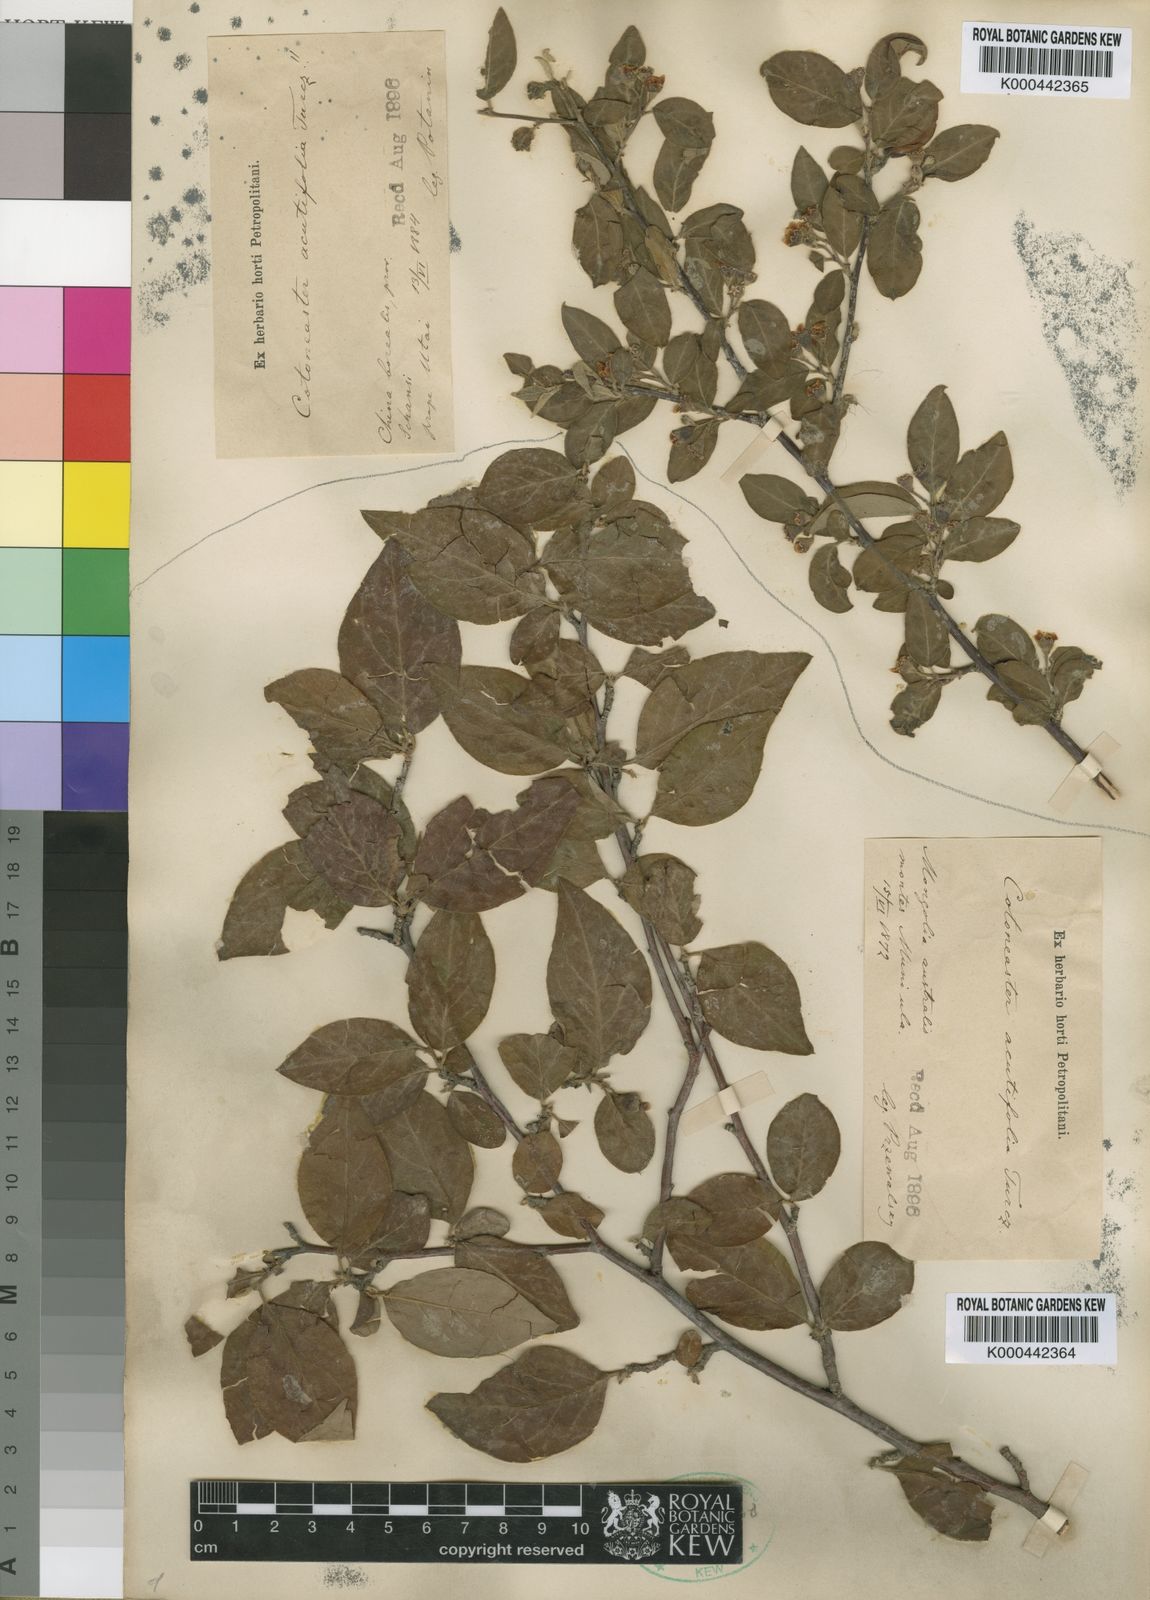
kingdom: Plantae
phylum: Tracheophyta
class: Magnoliopsida
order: Rosales
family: Rosaceae
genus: Cotoneaster
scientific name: Cotoneaster acutifolius
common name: Peking cotoneaster
